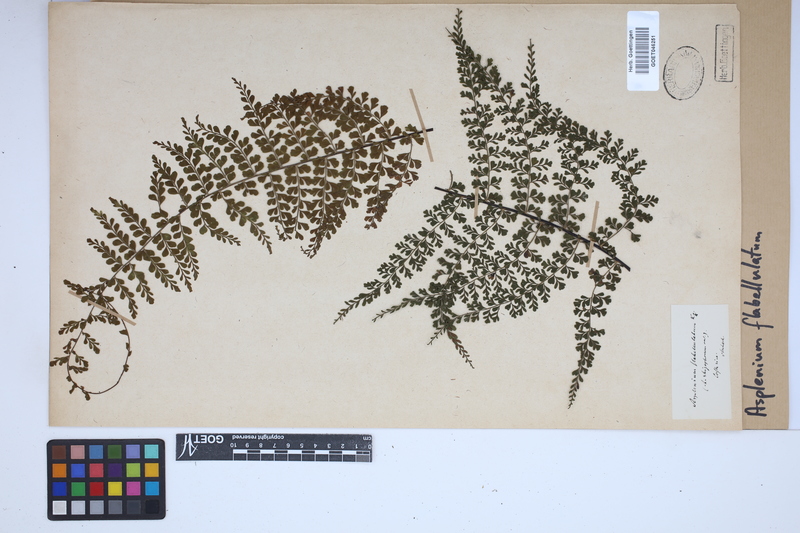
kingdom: Plantae
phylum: Tracheophyta
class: Polypodiopsida
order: Polypodiales
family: Aspleniaceae
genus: Asplenium
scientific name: Asplenium flabellulatum
